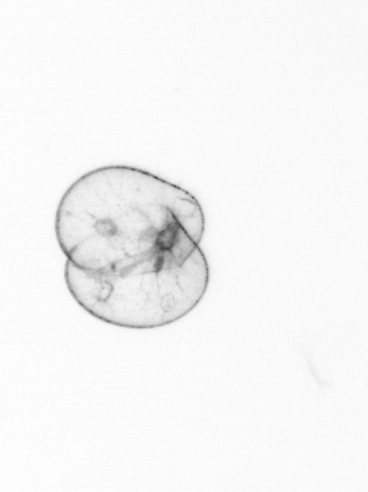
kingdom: Chromista
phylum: Myzozoa
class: Dinophyceae
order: Noctilucales
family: Noctilucaceae
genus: Noctiluca
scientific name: Noctiluca scintillans
